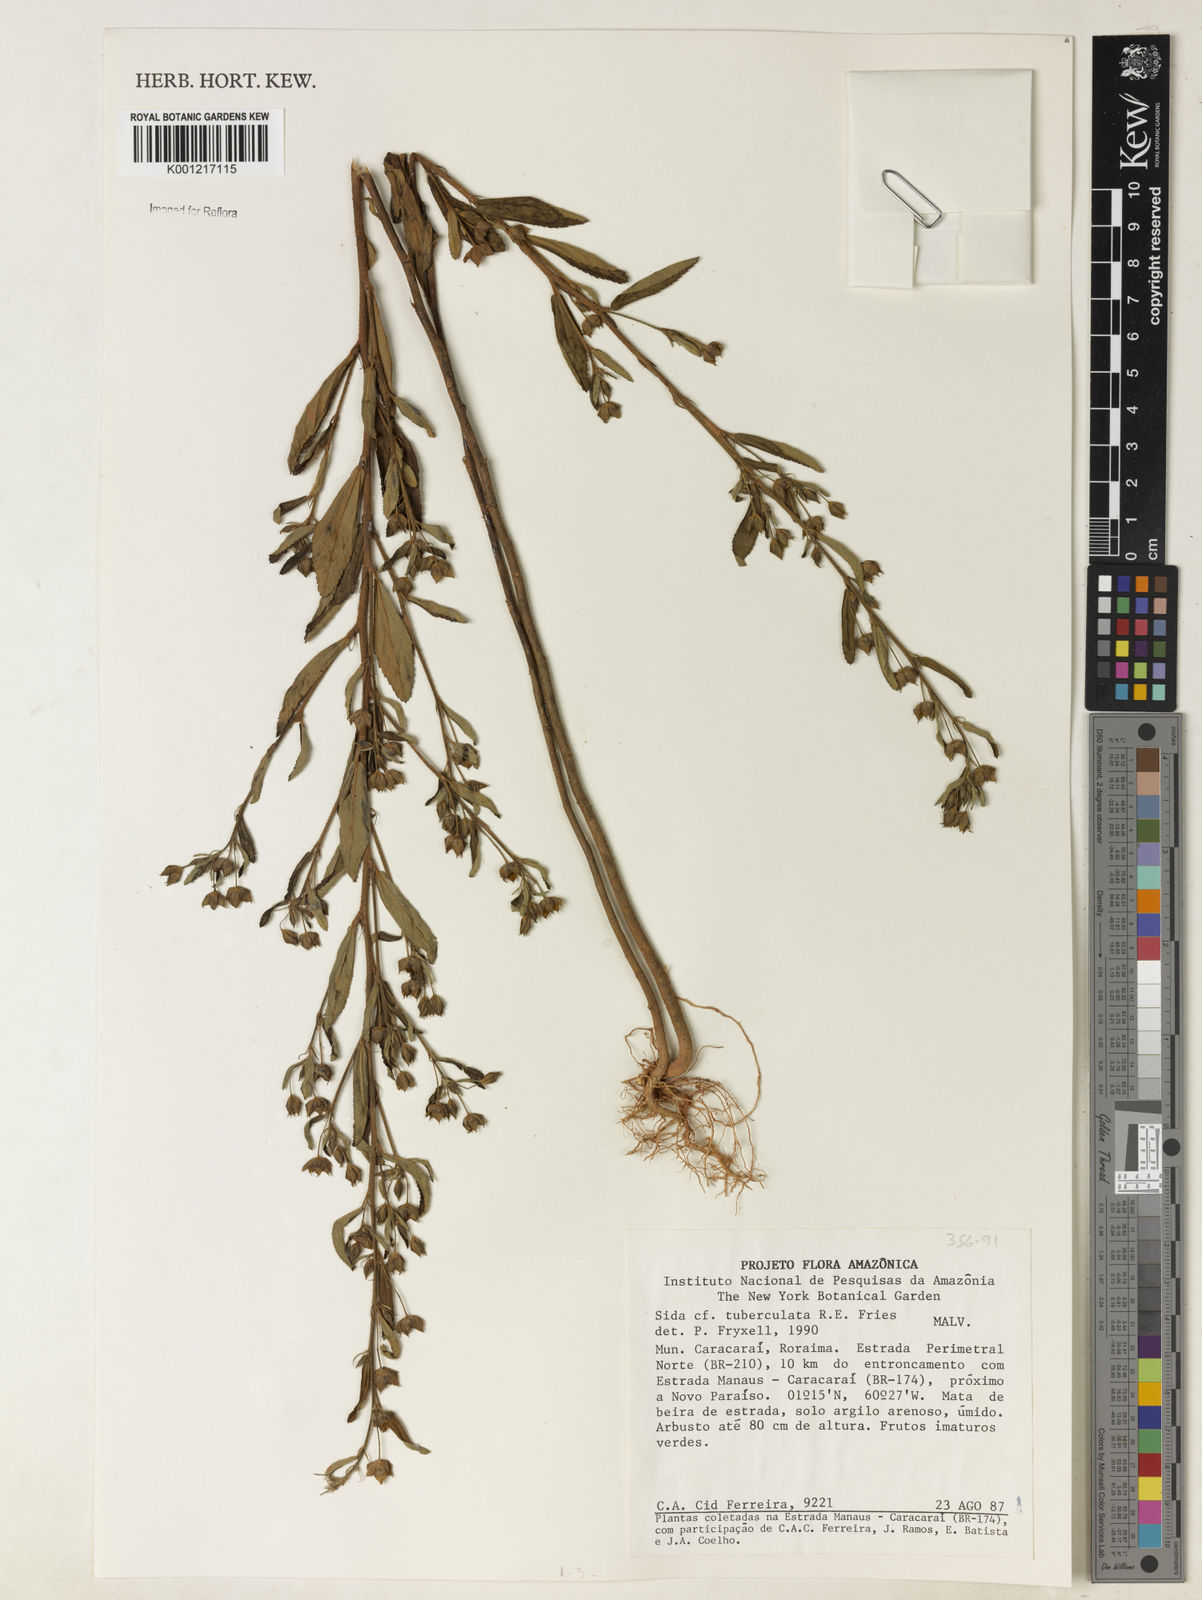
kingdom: Plantae
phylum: Tracheophyta
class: Magnoliopsida
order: Malvales
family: Malvaceae
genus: Sida
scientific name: Sida tuberculata
